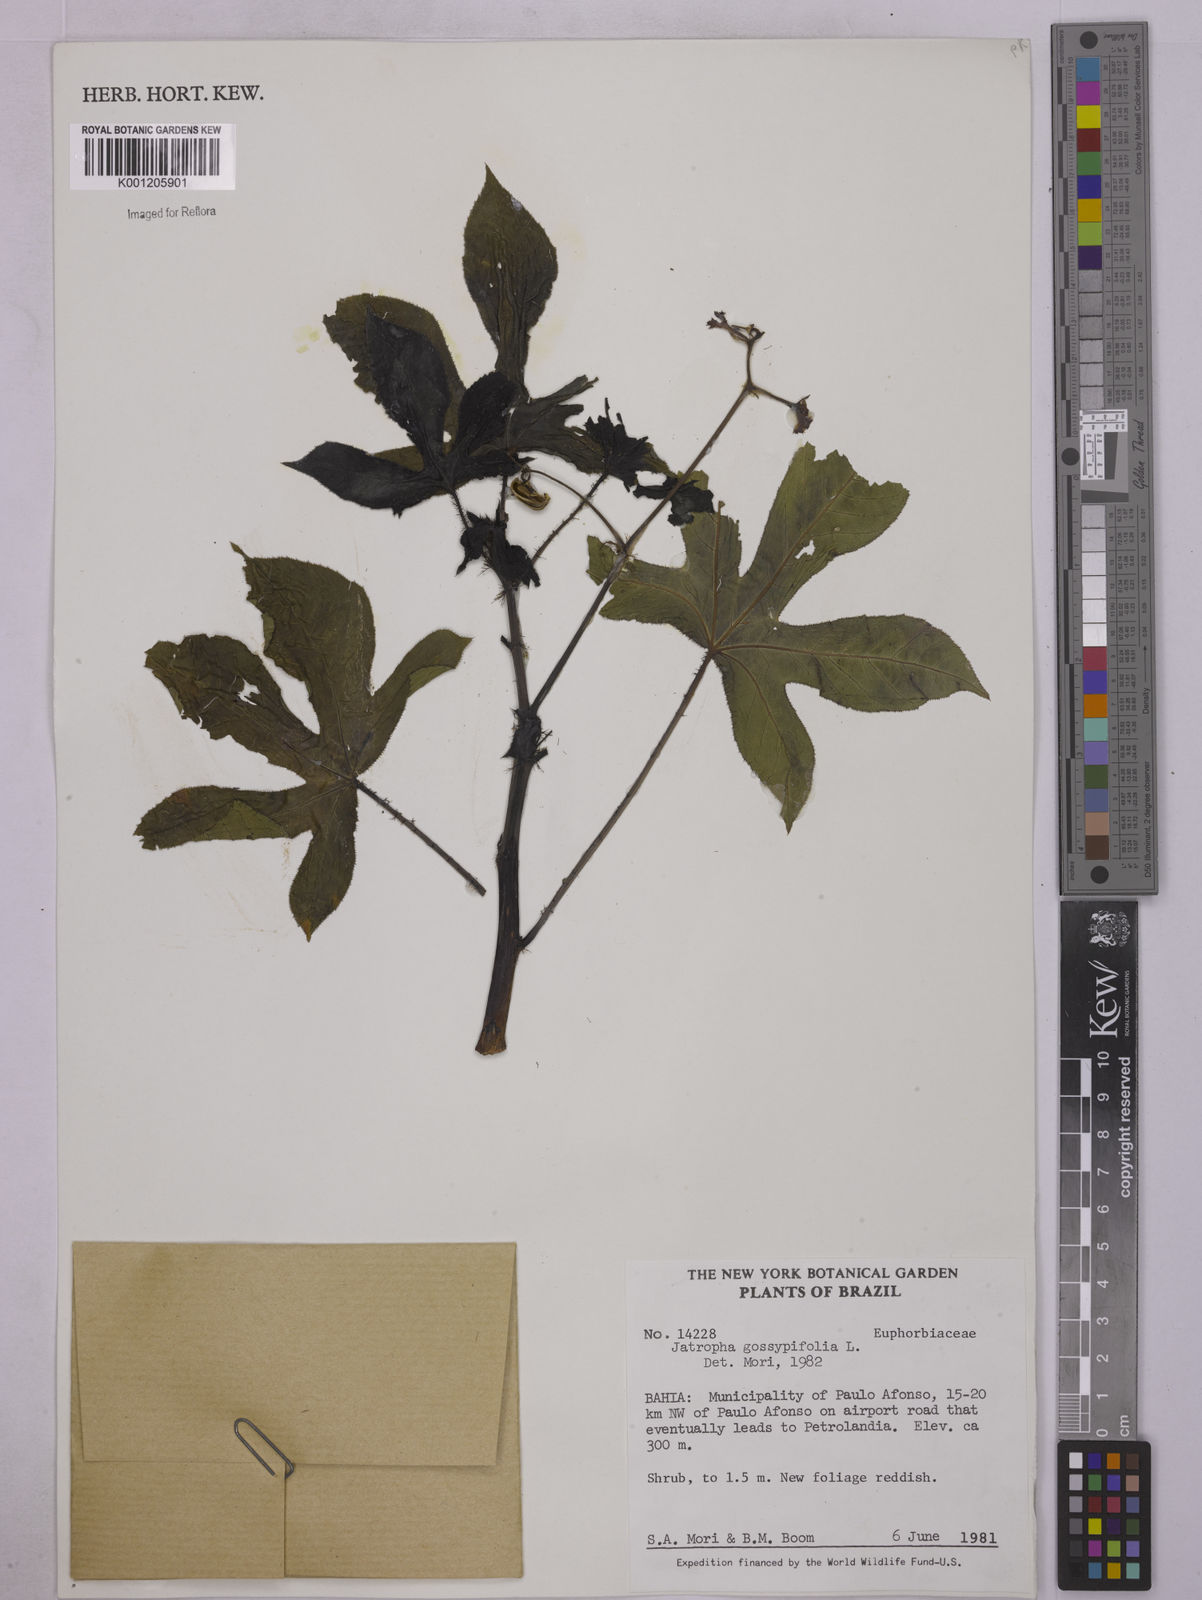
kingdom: Plantae
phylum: Tracheophyta
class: Magnoliopsida
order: Malpighiales
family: Euphorbiaceae
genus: Jatropha
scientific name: Jatropha gossypiifolia
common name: Bellyache bush
